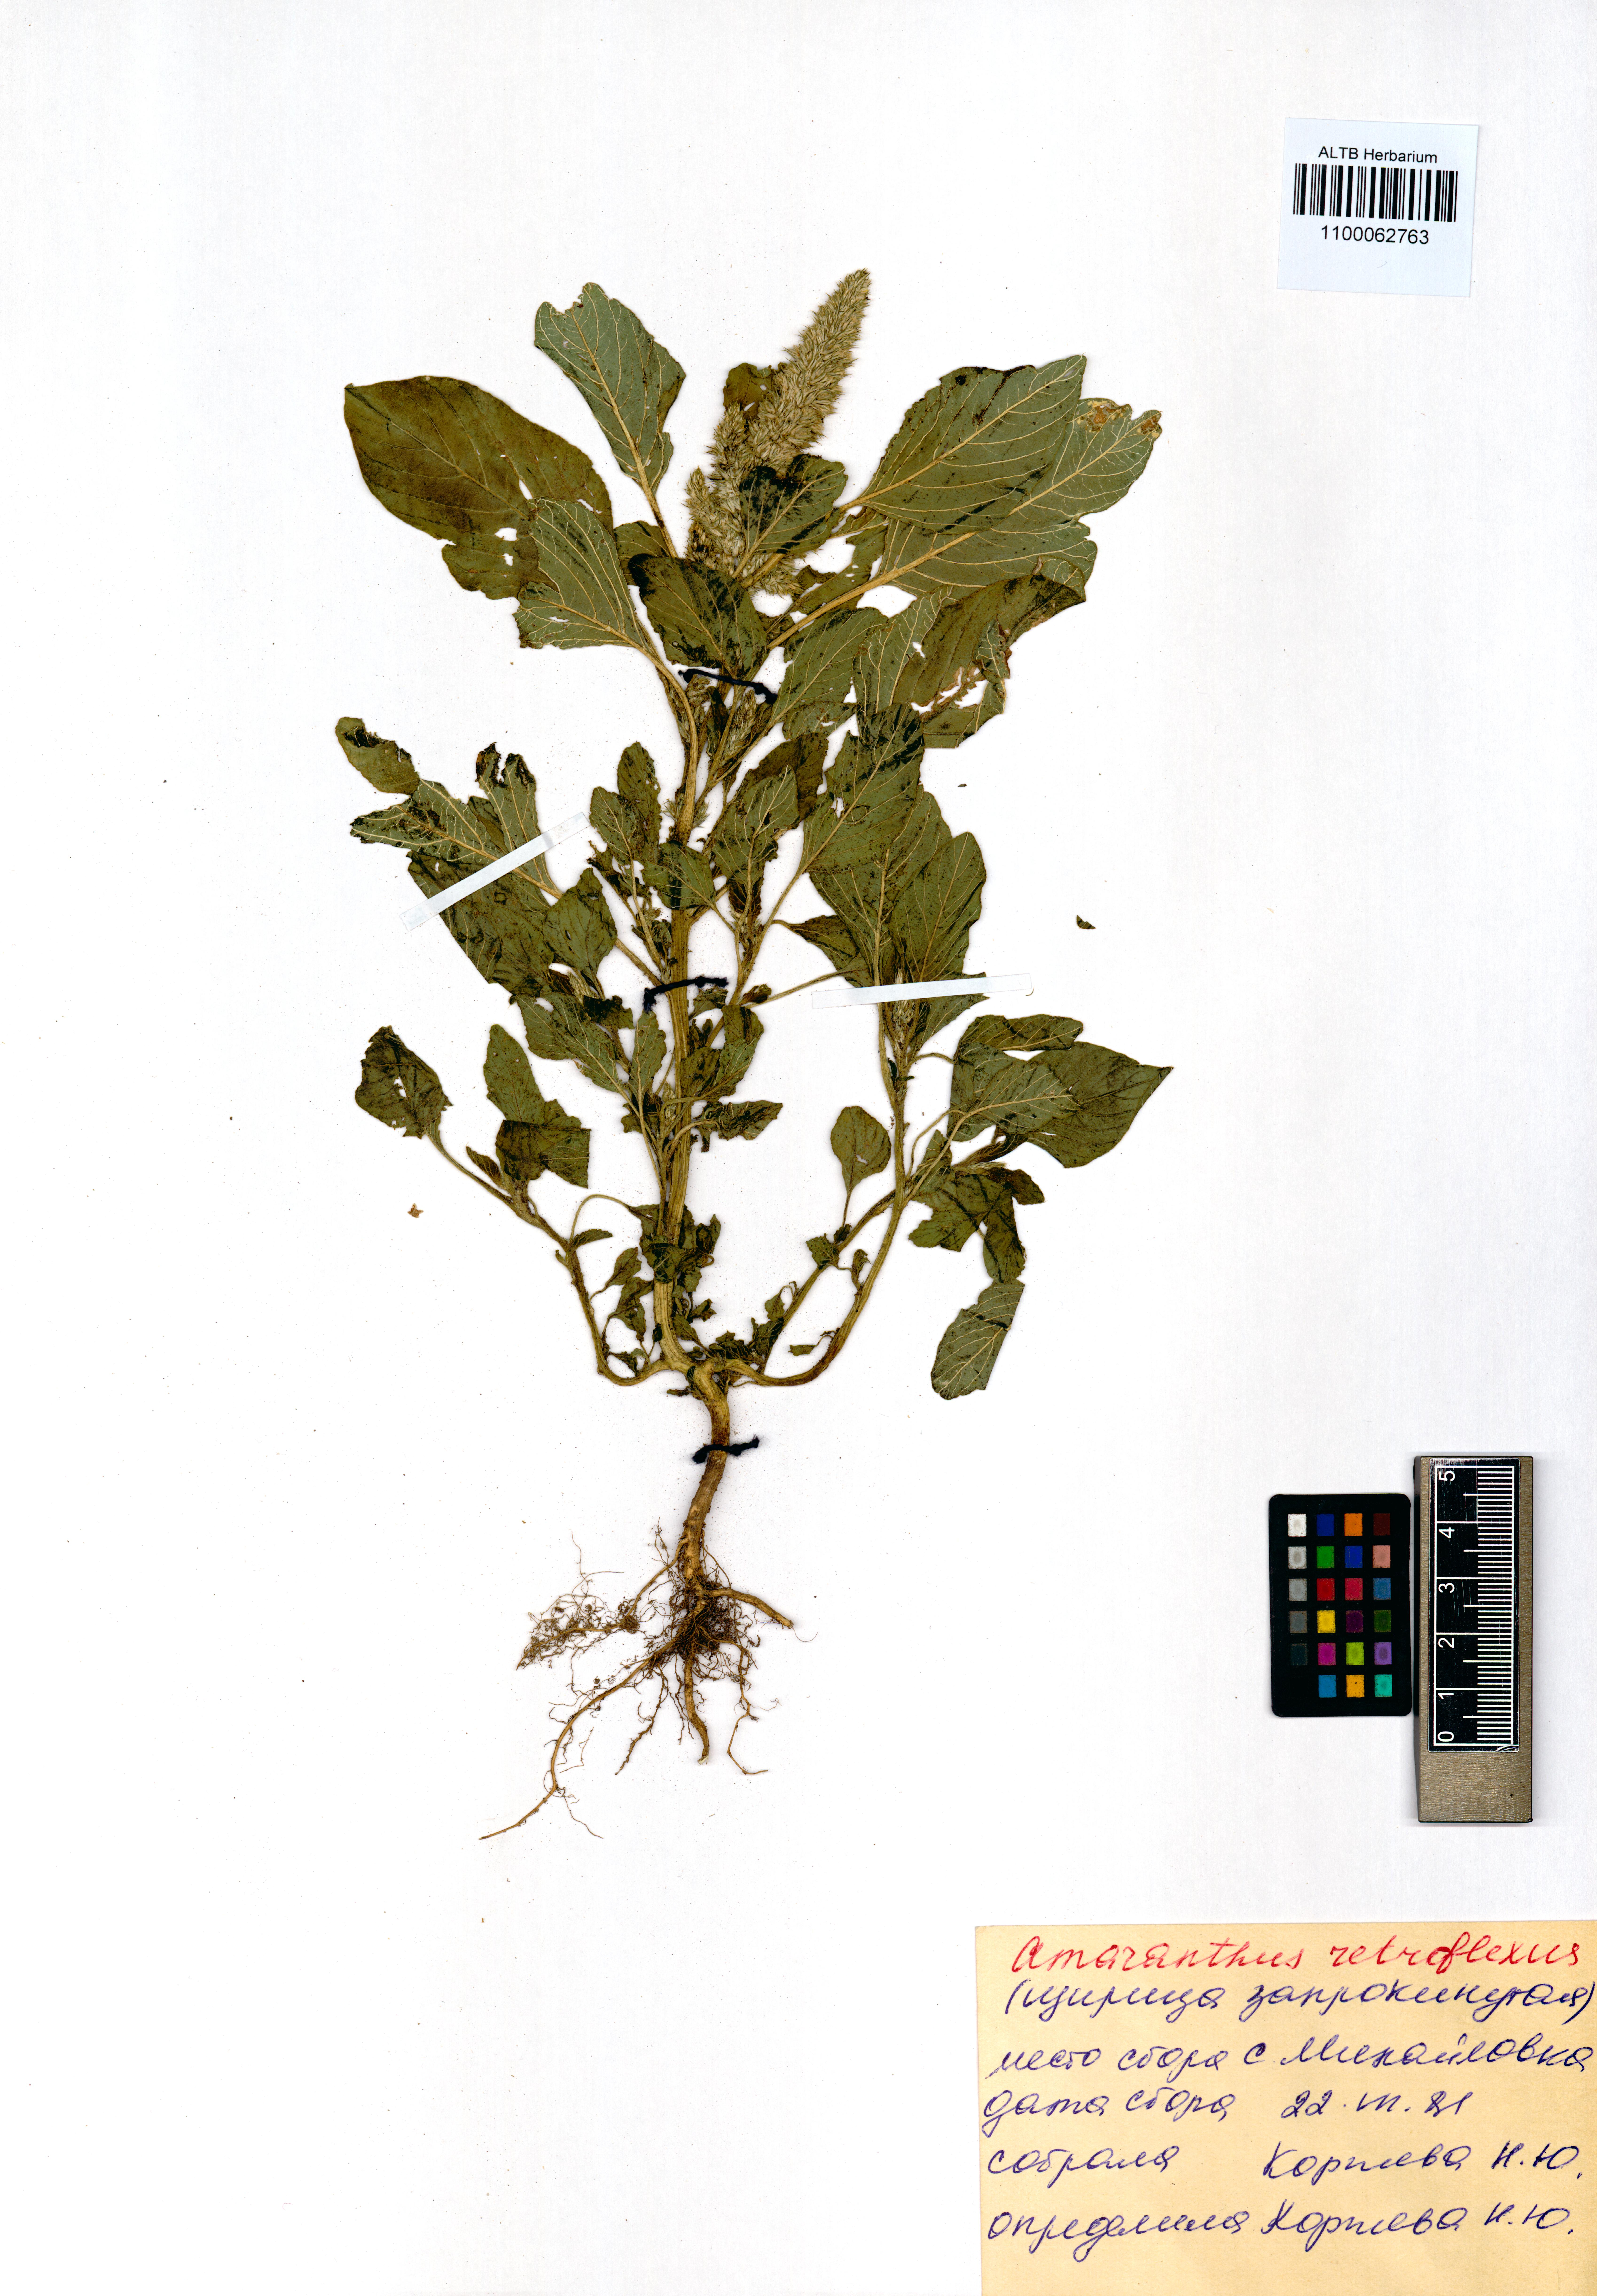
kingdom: Plantae
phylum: Tracheophyta
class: Magnoliopsida
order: Caryophyllales
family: Amaranthaceae
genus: Amaranthus
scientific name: Amaranthus retroflexus
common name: Redroot amaranth
